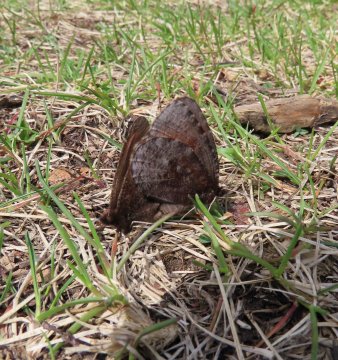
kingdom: Animalia
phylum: Arthropoda
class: Insecta
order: Lepidoptera
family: Nymphalidae
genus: Erebia
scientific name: Erebia discoidalis
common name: Red-disked Alpine
